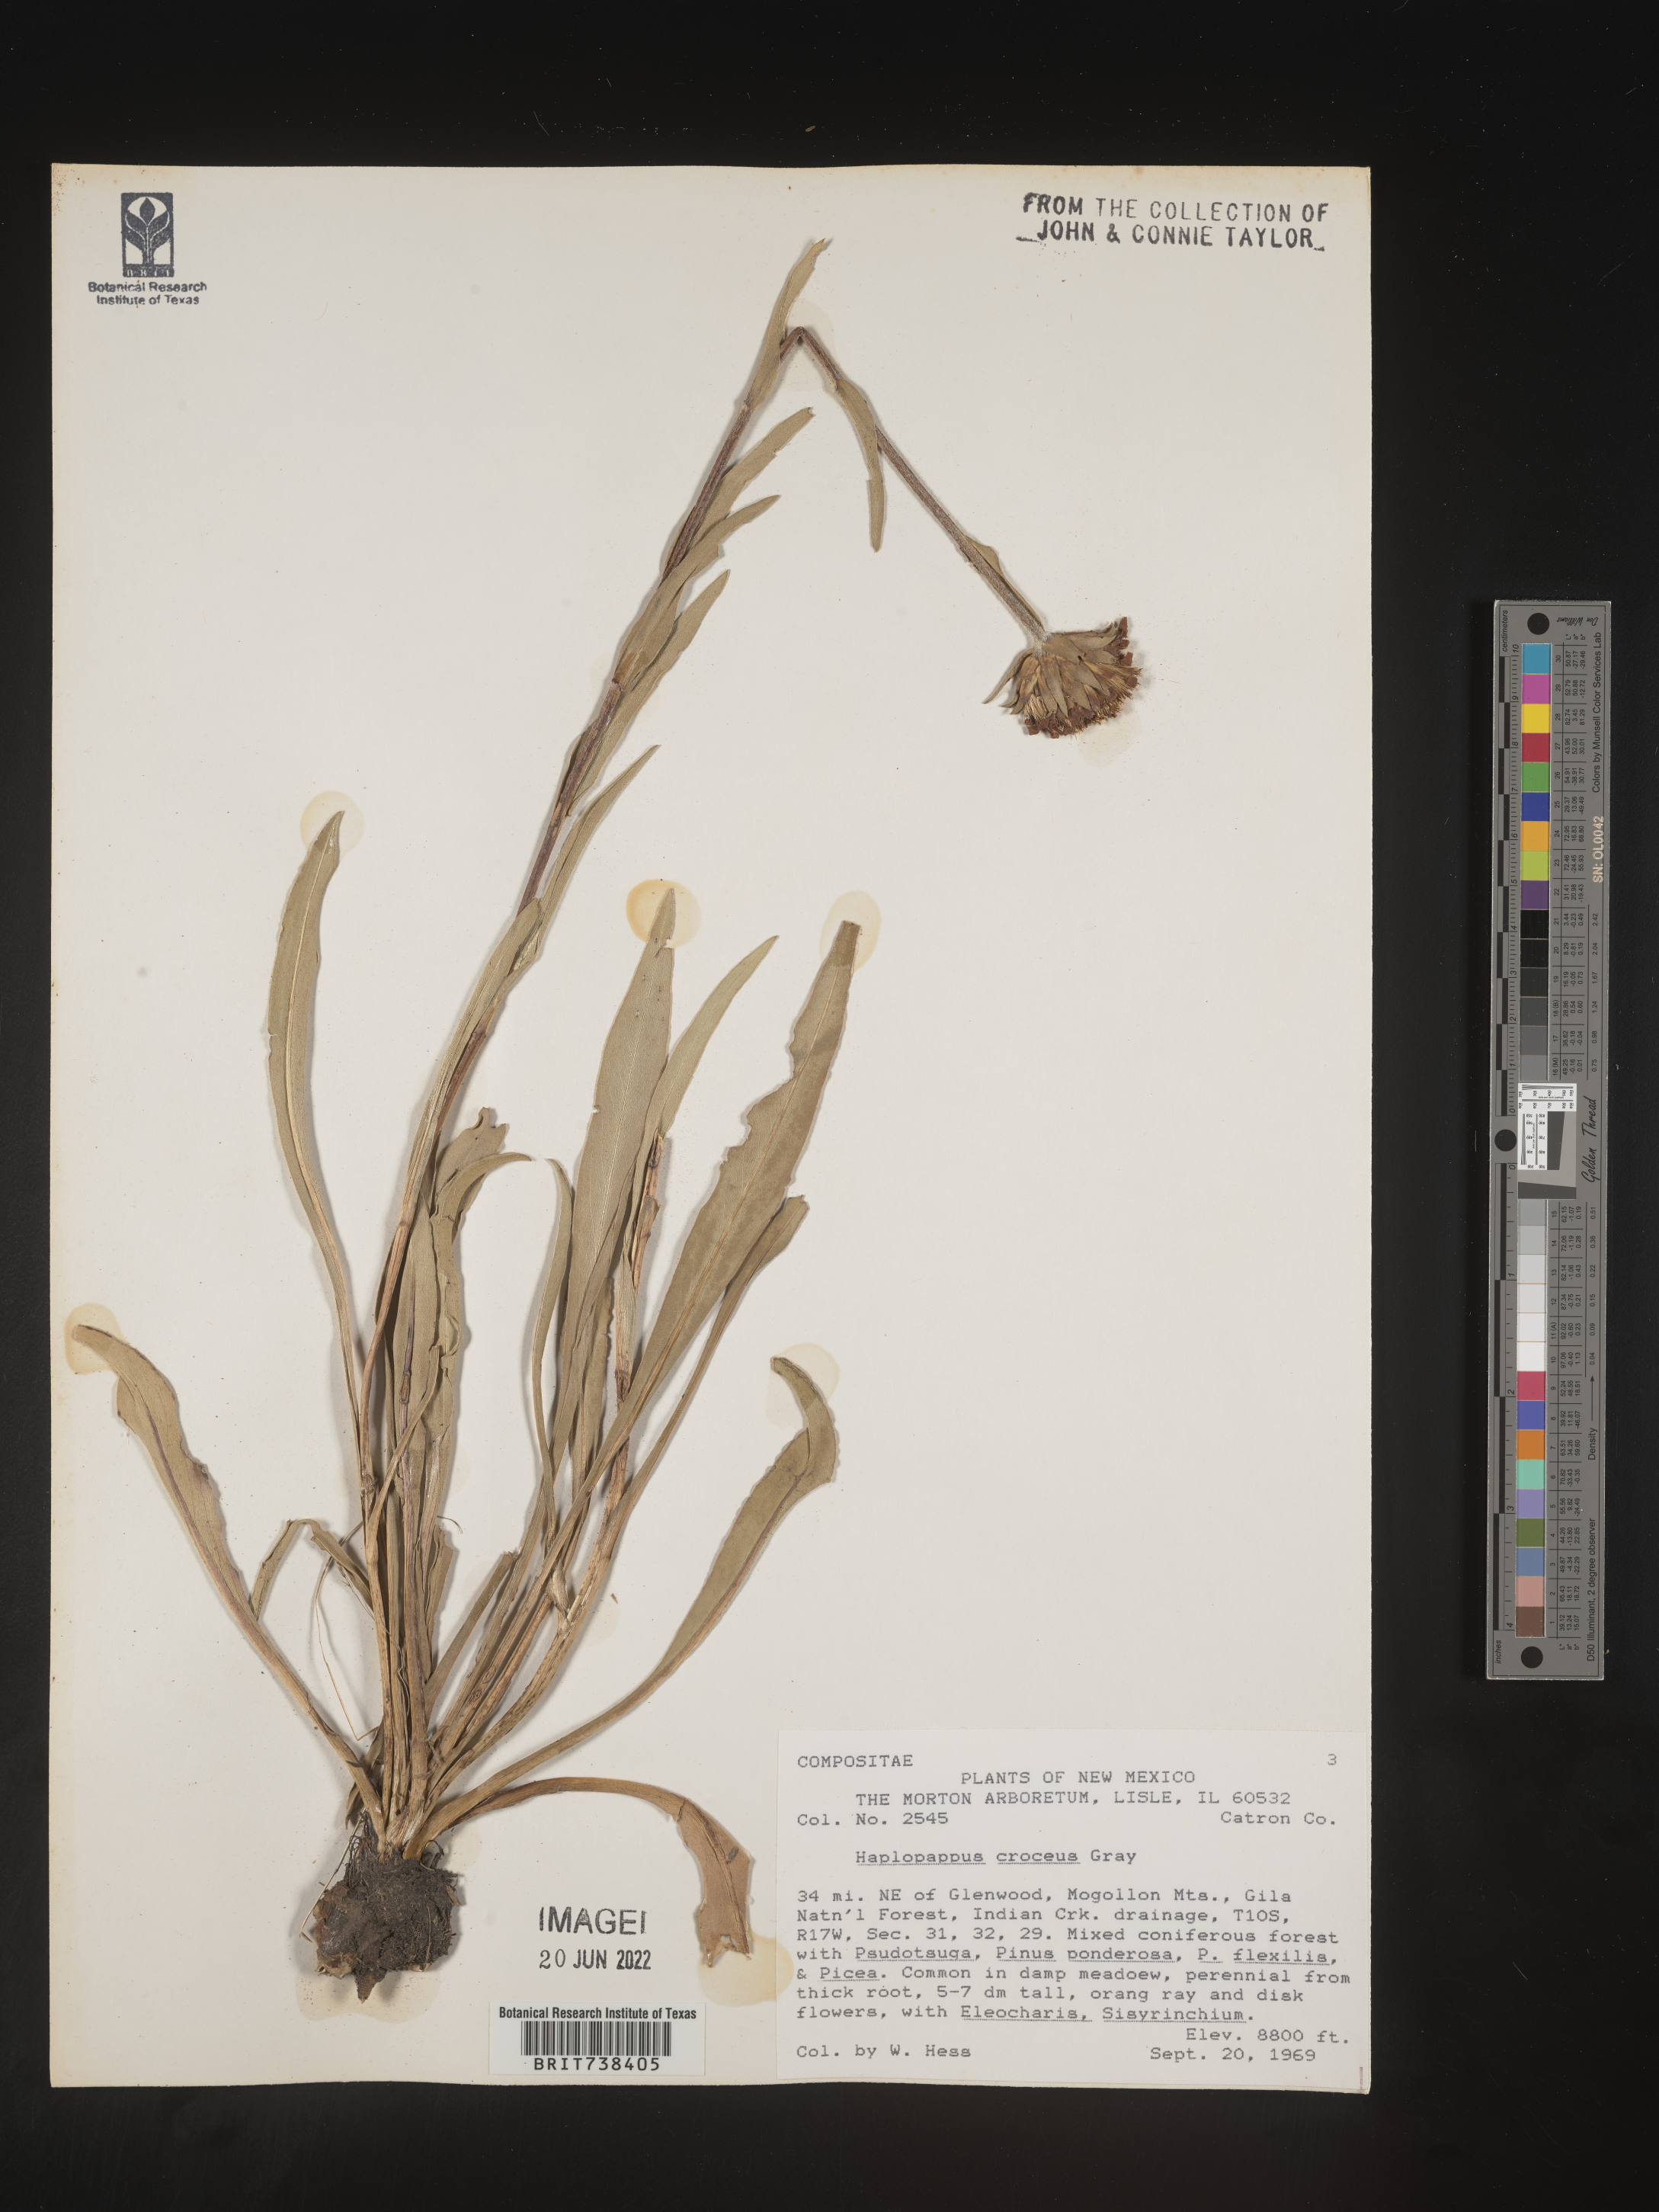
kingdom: Plantae
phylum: Tracheophyta
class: Magnoliopsida
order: Asterales
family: Asteraceae
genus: Pyrrocoma
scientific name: Pyrrocoma crocea
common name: Curly-head goldenweed
